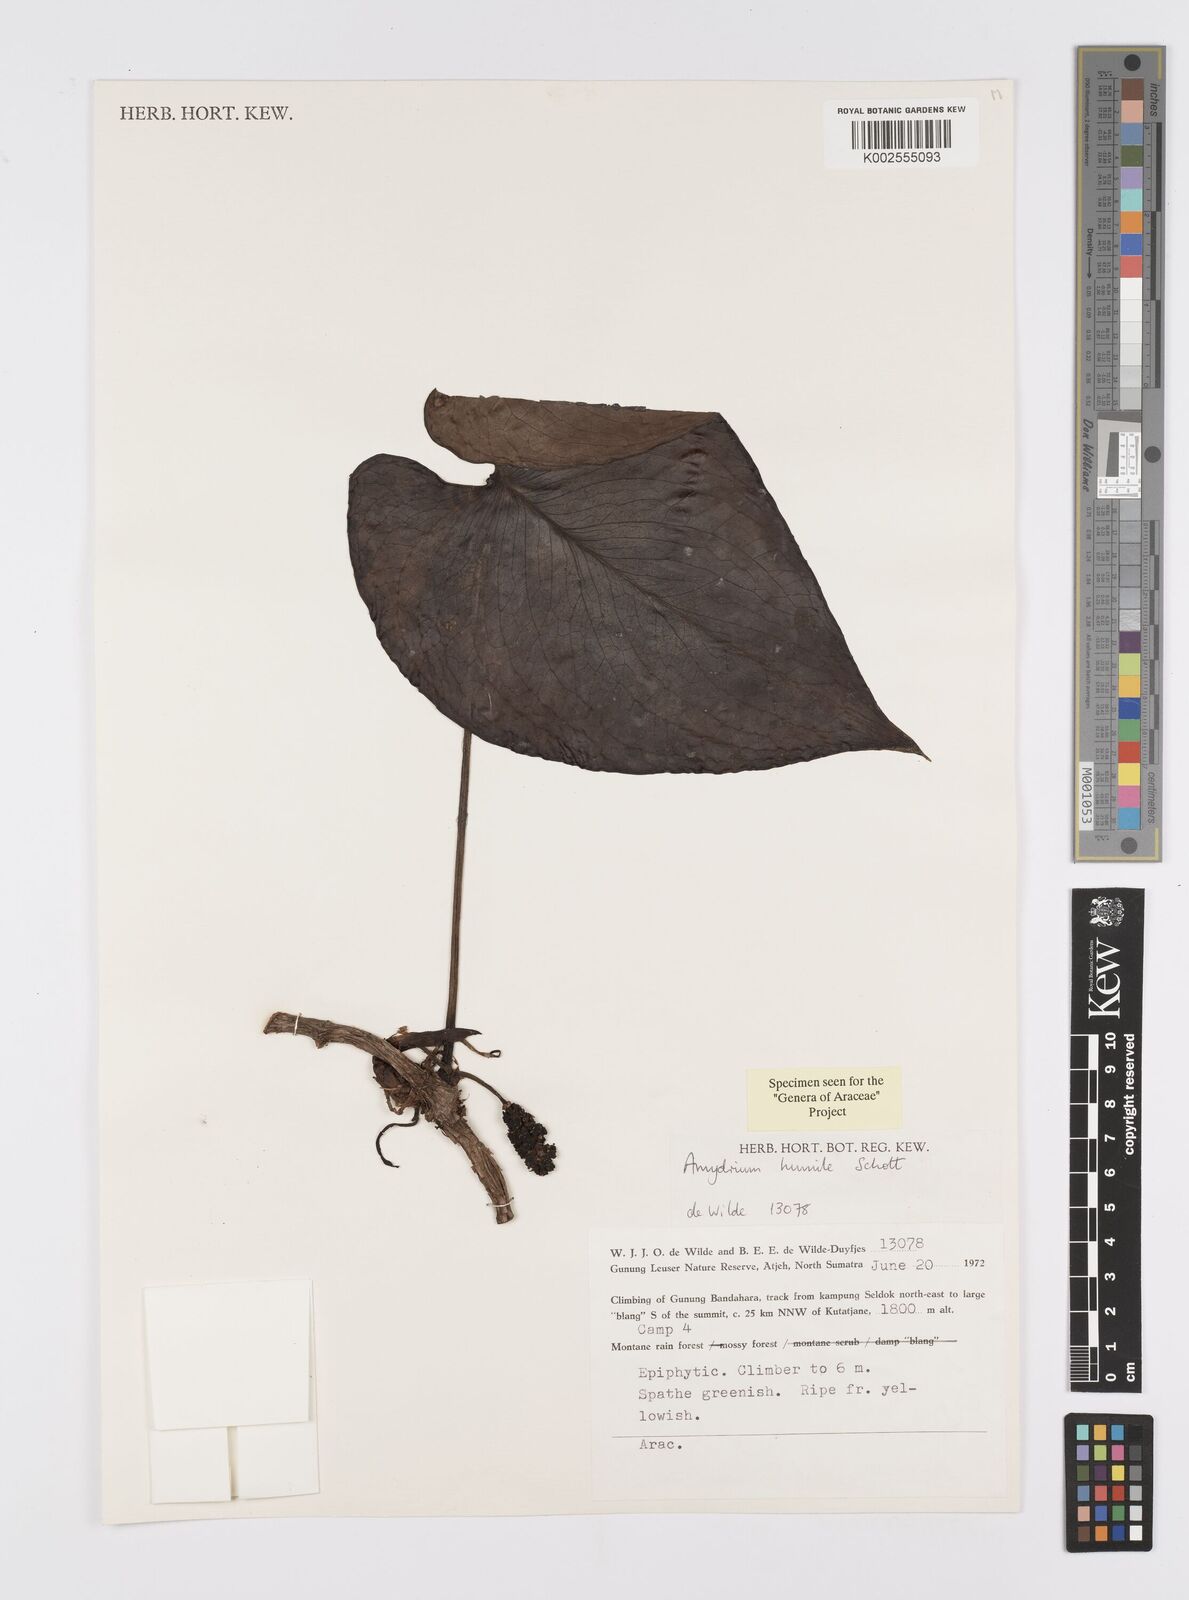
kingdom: Plantae
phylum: Tracheophyta
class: Liliopsida
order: Alismatales
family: Araceae
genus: Amydrium
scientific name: Amydrium humile
